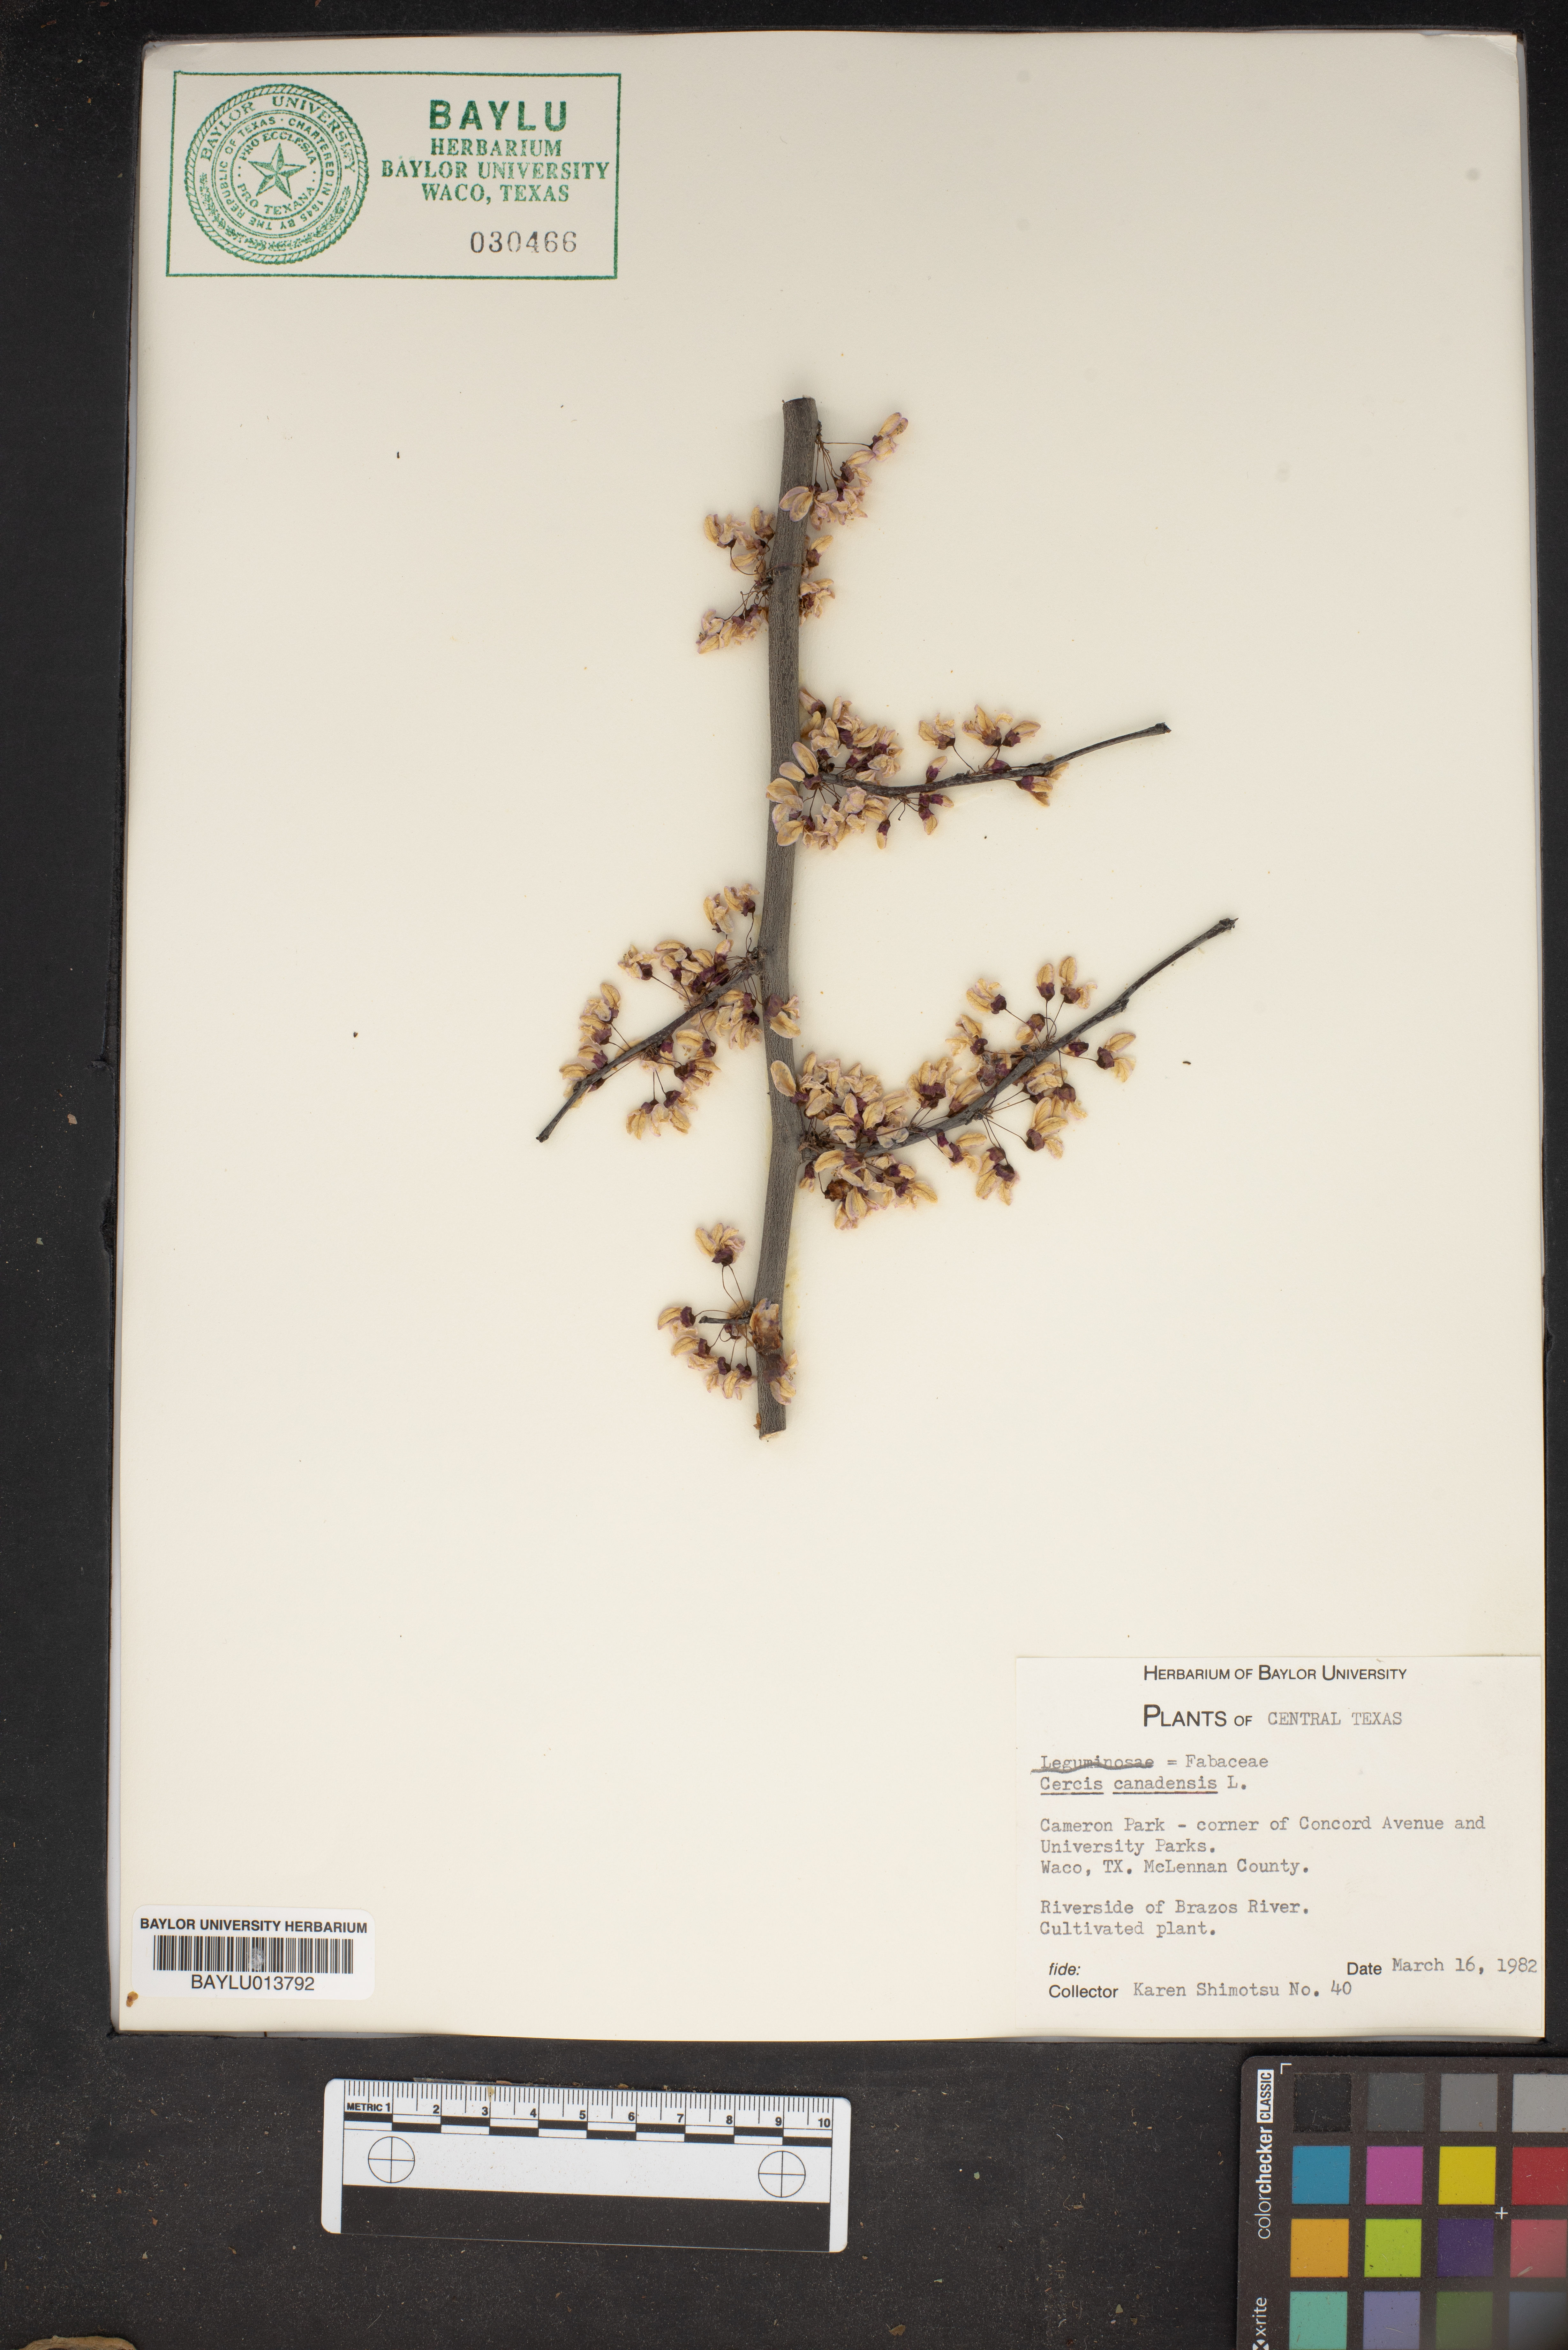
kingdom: Plantae
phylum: Tracheophyta
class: Magnoliopsida
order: Fabales
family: Fabaceae
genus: Cercis
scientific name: Cercis canadensis
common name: Eastern redbud
